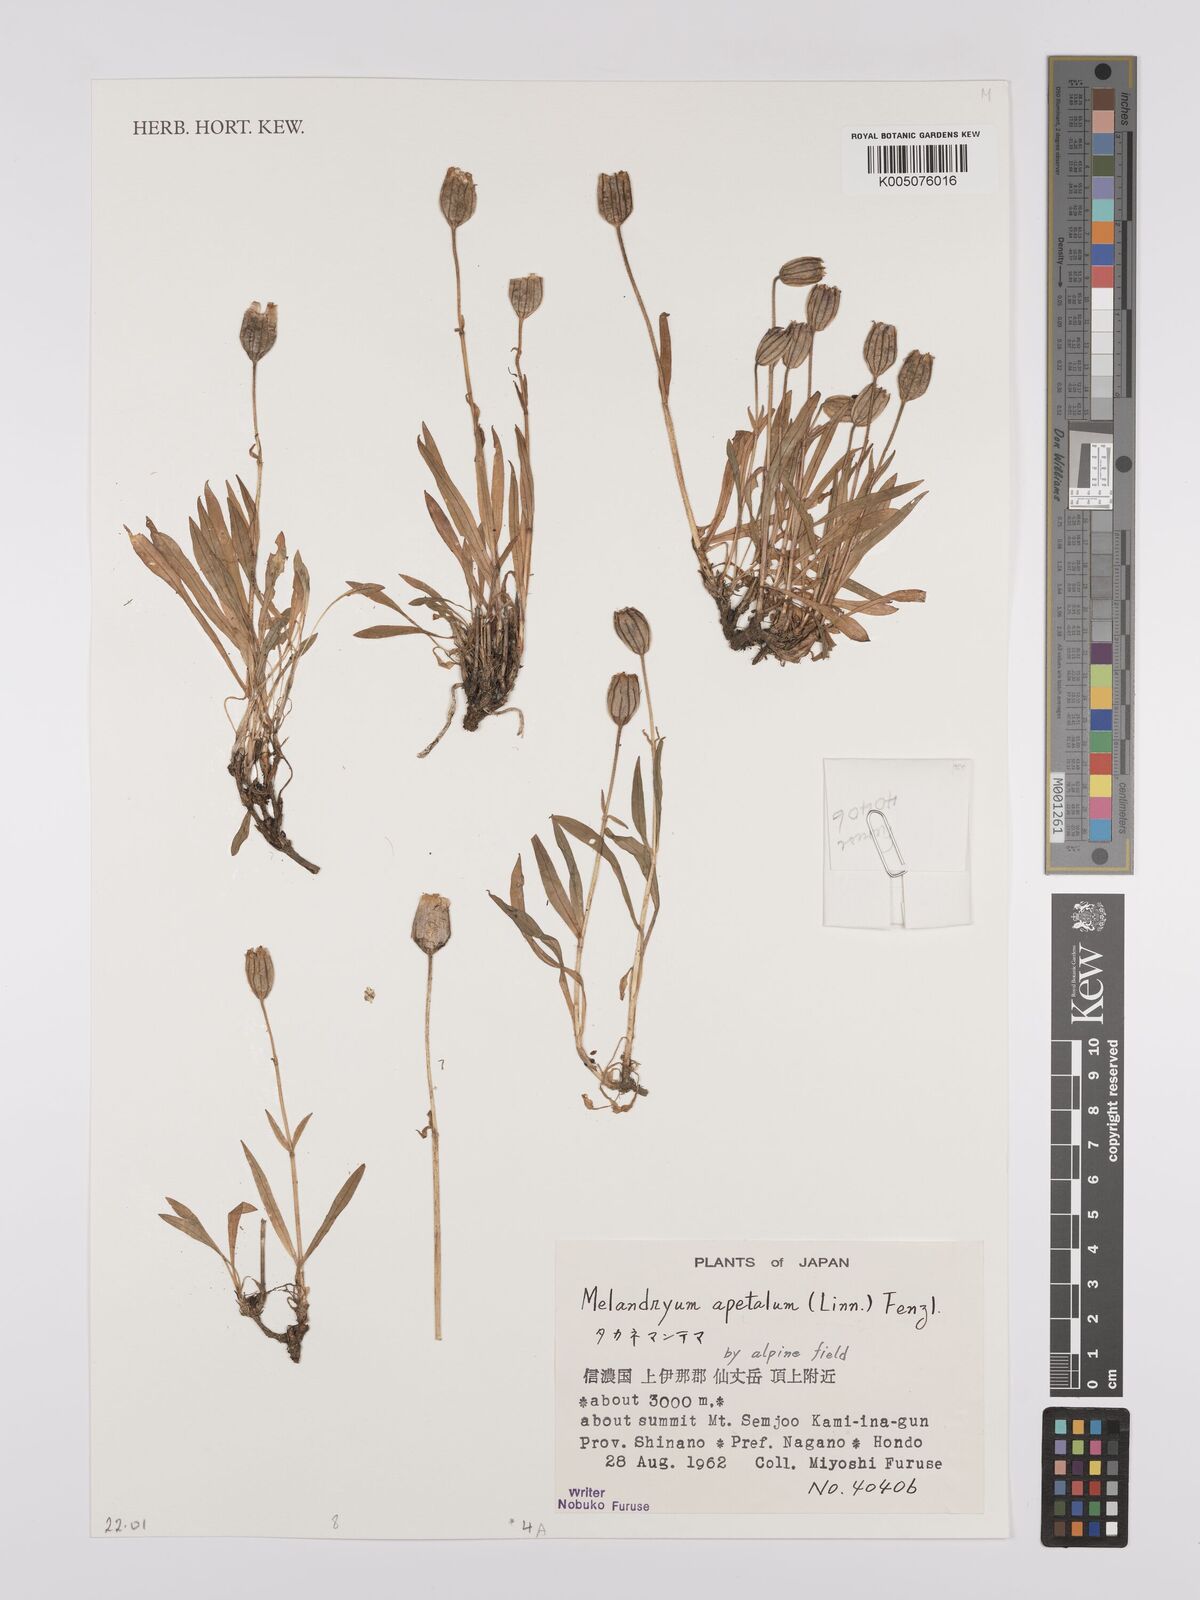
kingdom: Plantae
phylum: Tracheophyta
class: Magnoliopsida
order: Caryophyllales
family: Caryophyllaceae
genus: Silene
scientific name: Silene
